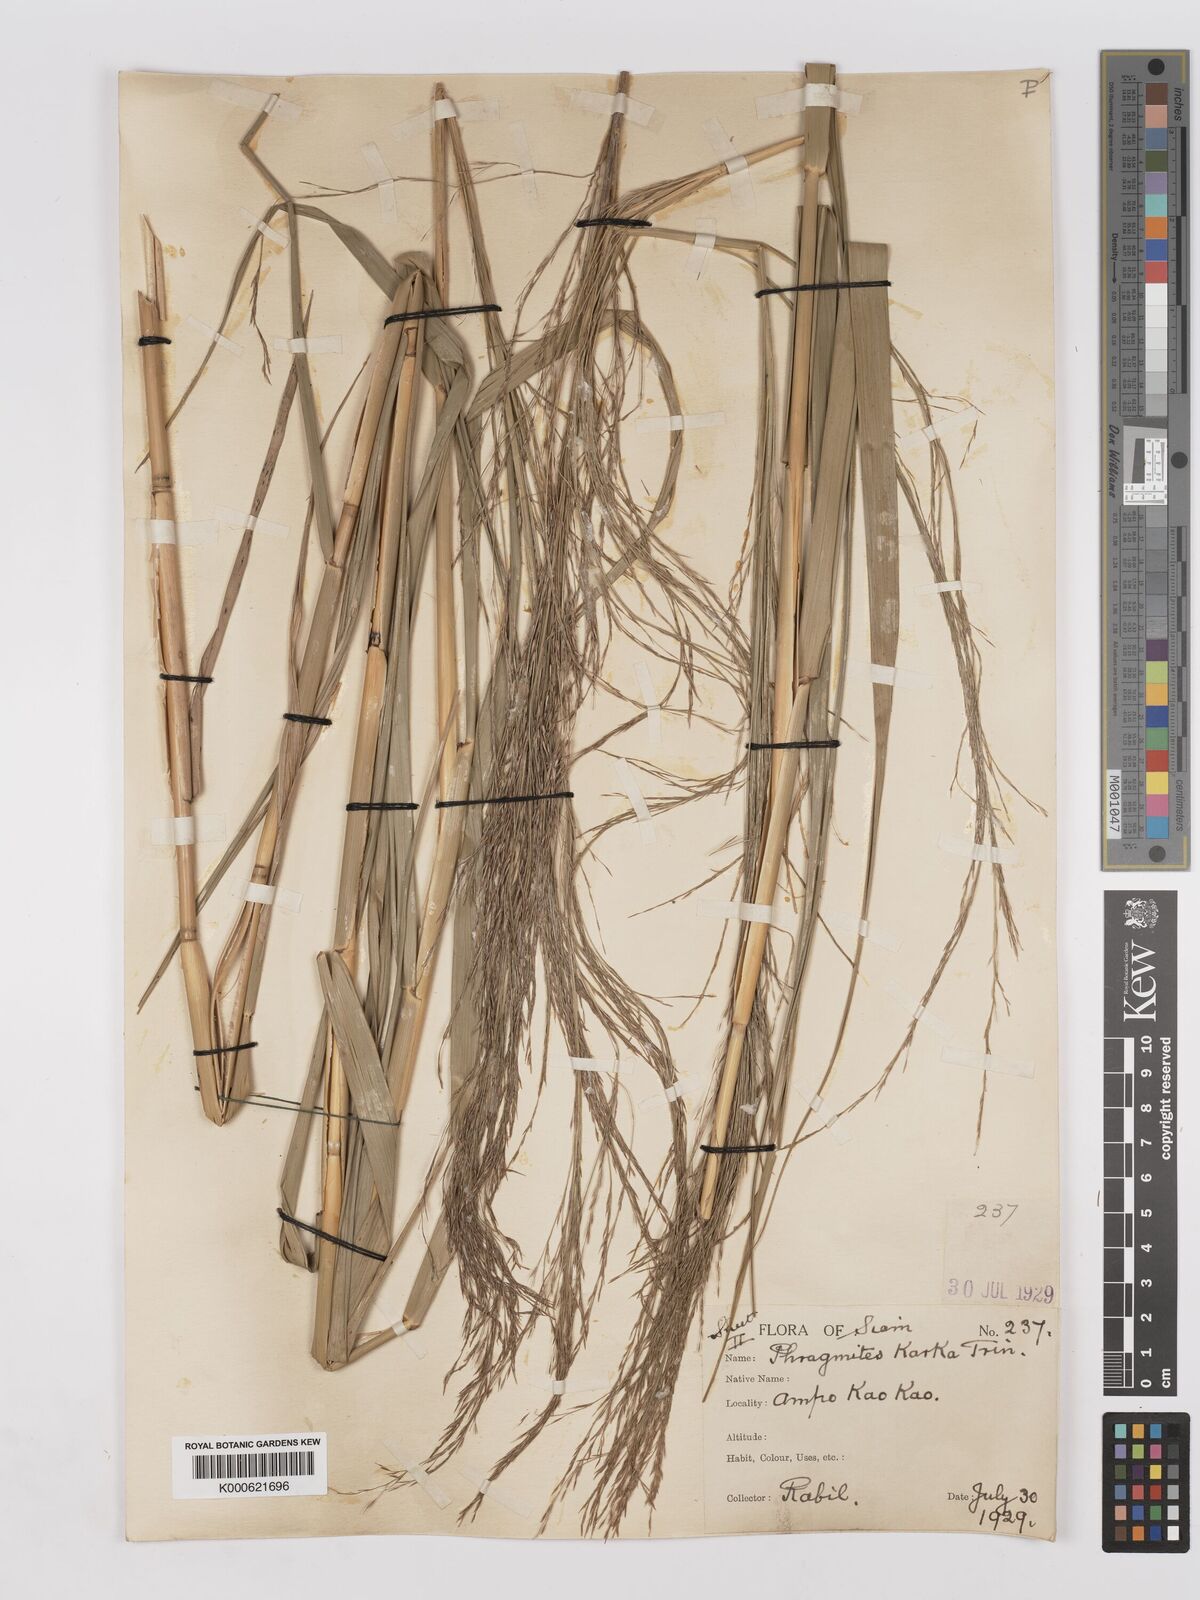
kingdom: Plantae
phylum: Tracheophyta
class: Liliopsida
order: Poales
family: Poaceae
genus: Phragmites
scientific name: Phragmites karka
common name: Tropical reed
